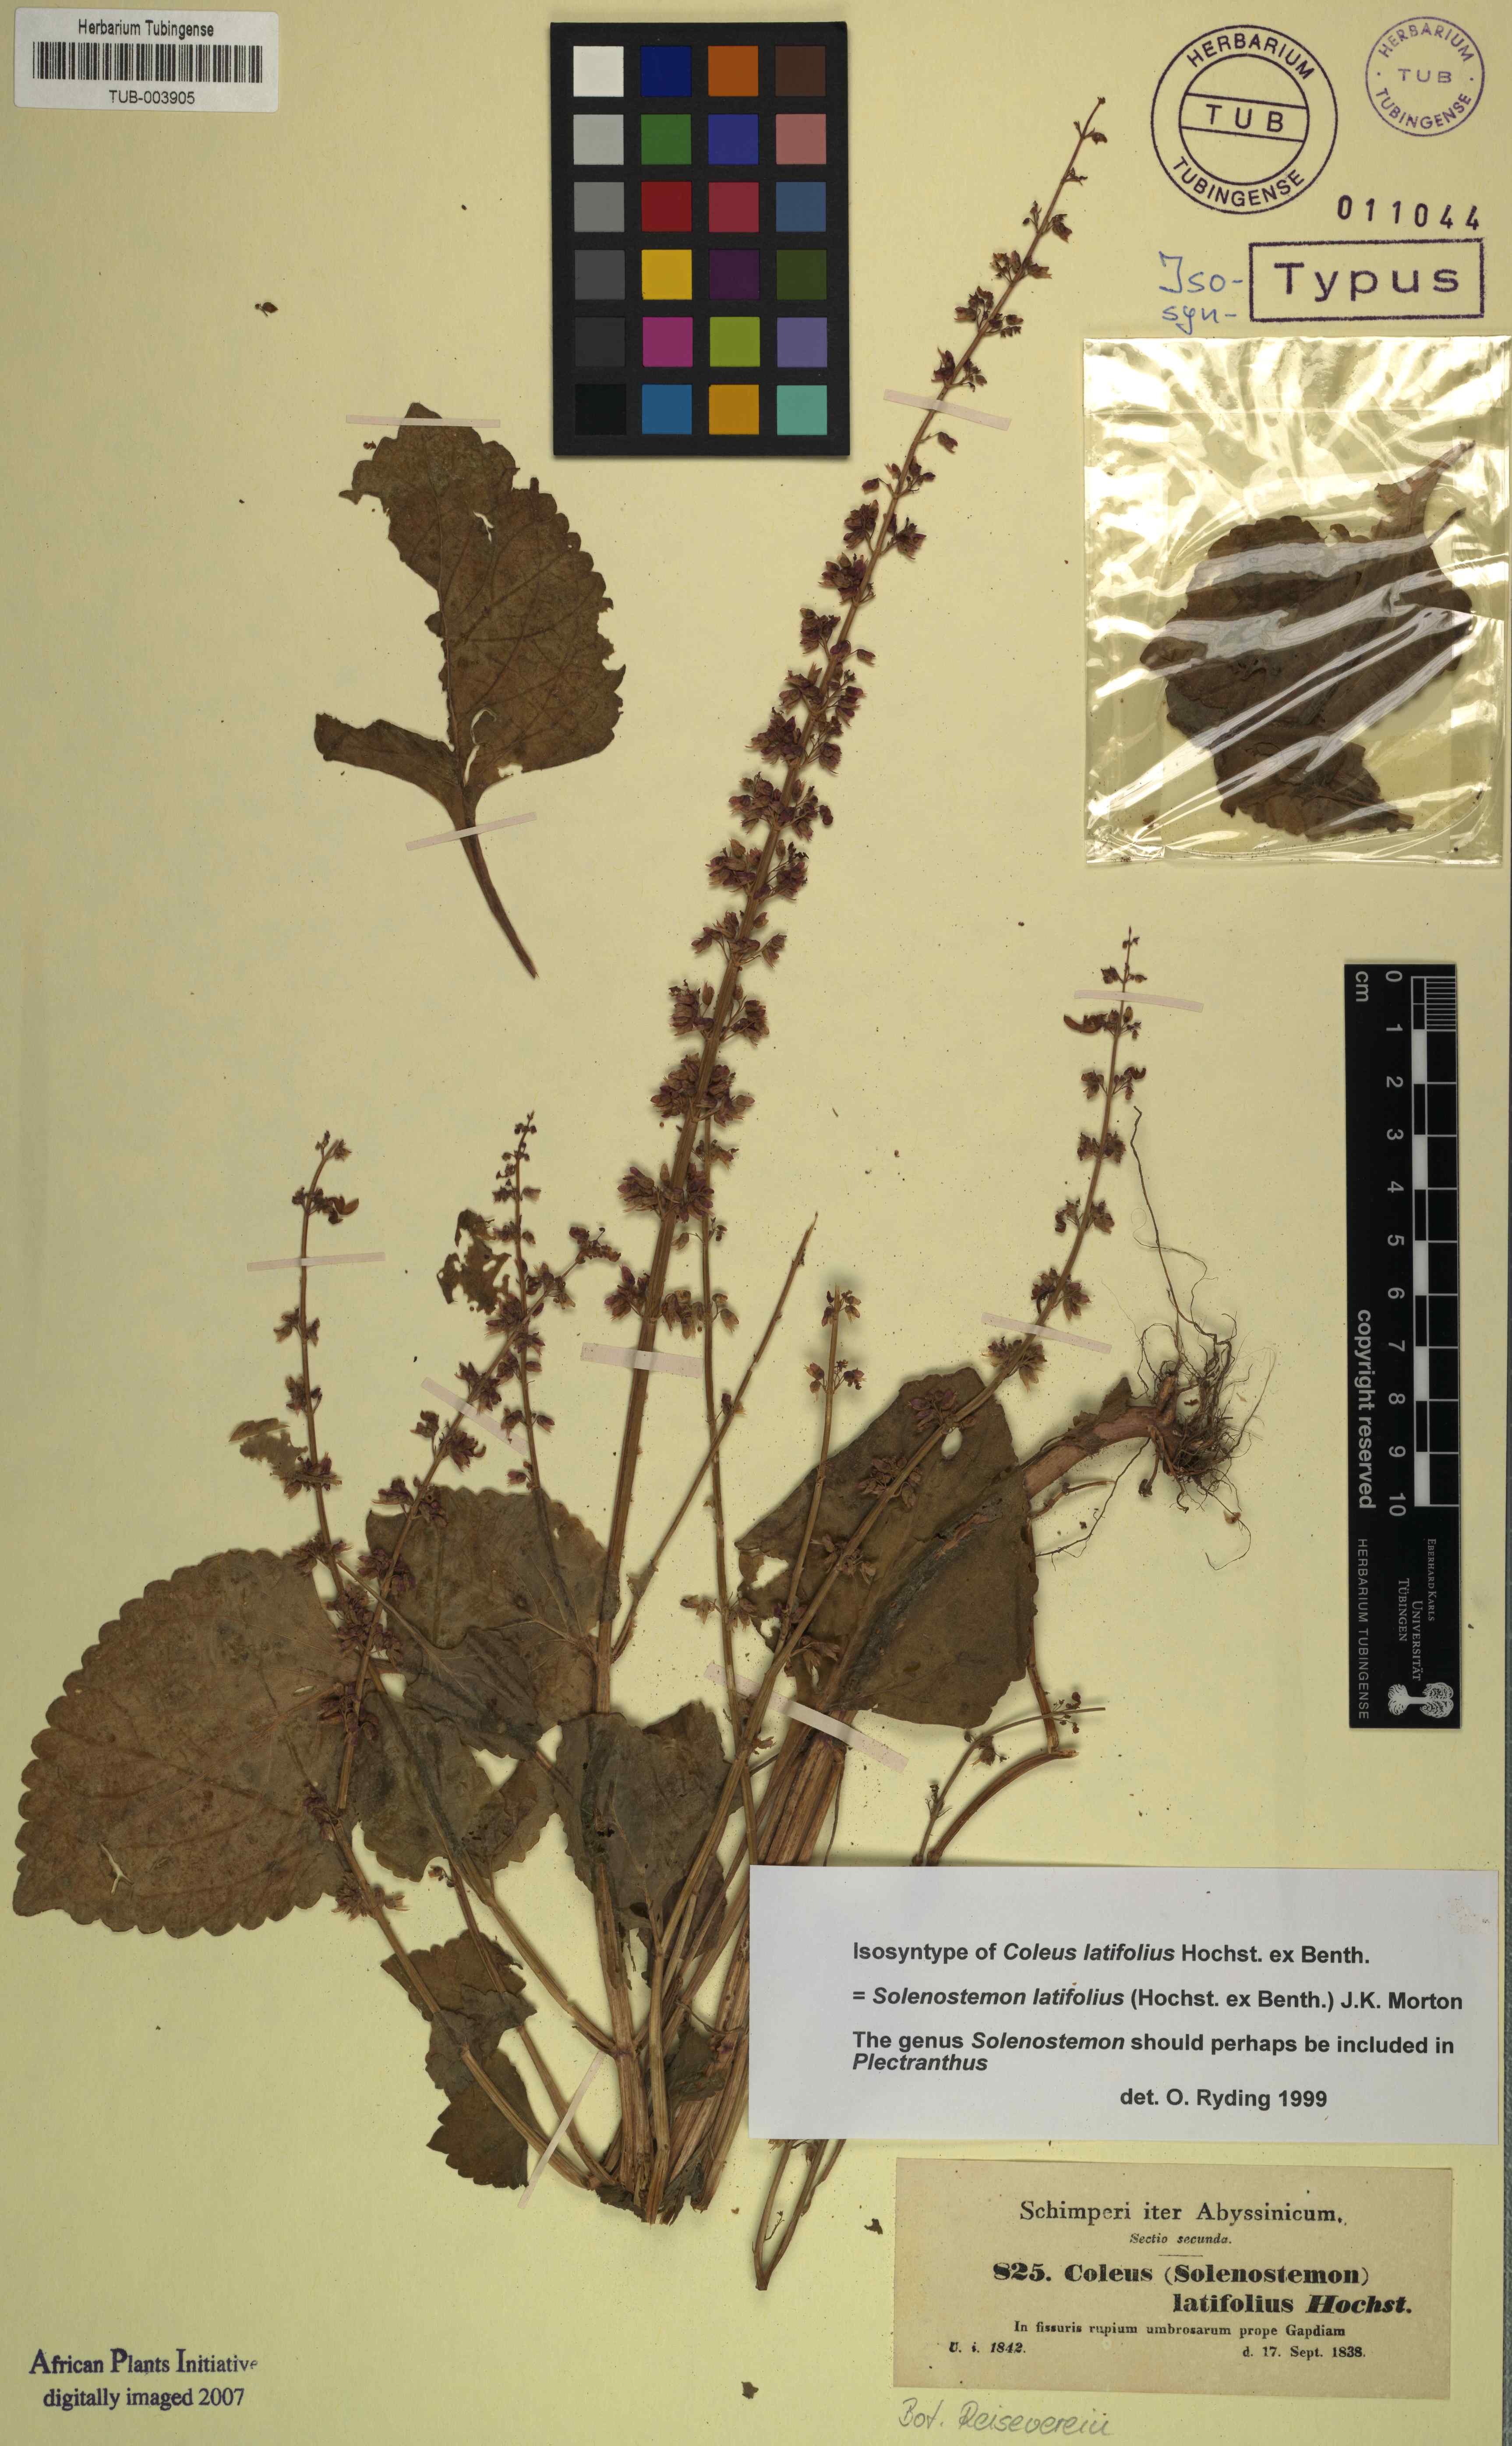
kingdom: Plantae
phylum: Tracheophyta
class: Magnoliopsida
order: Lamiales
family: Lamiaceae
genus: Coleus
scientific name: Coleus bojeri
